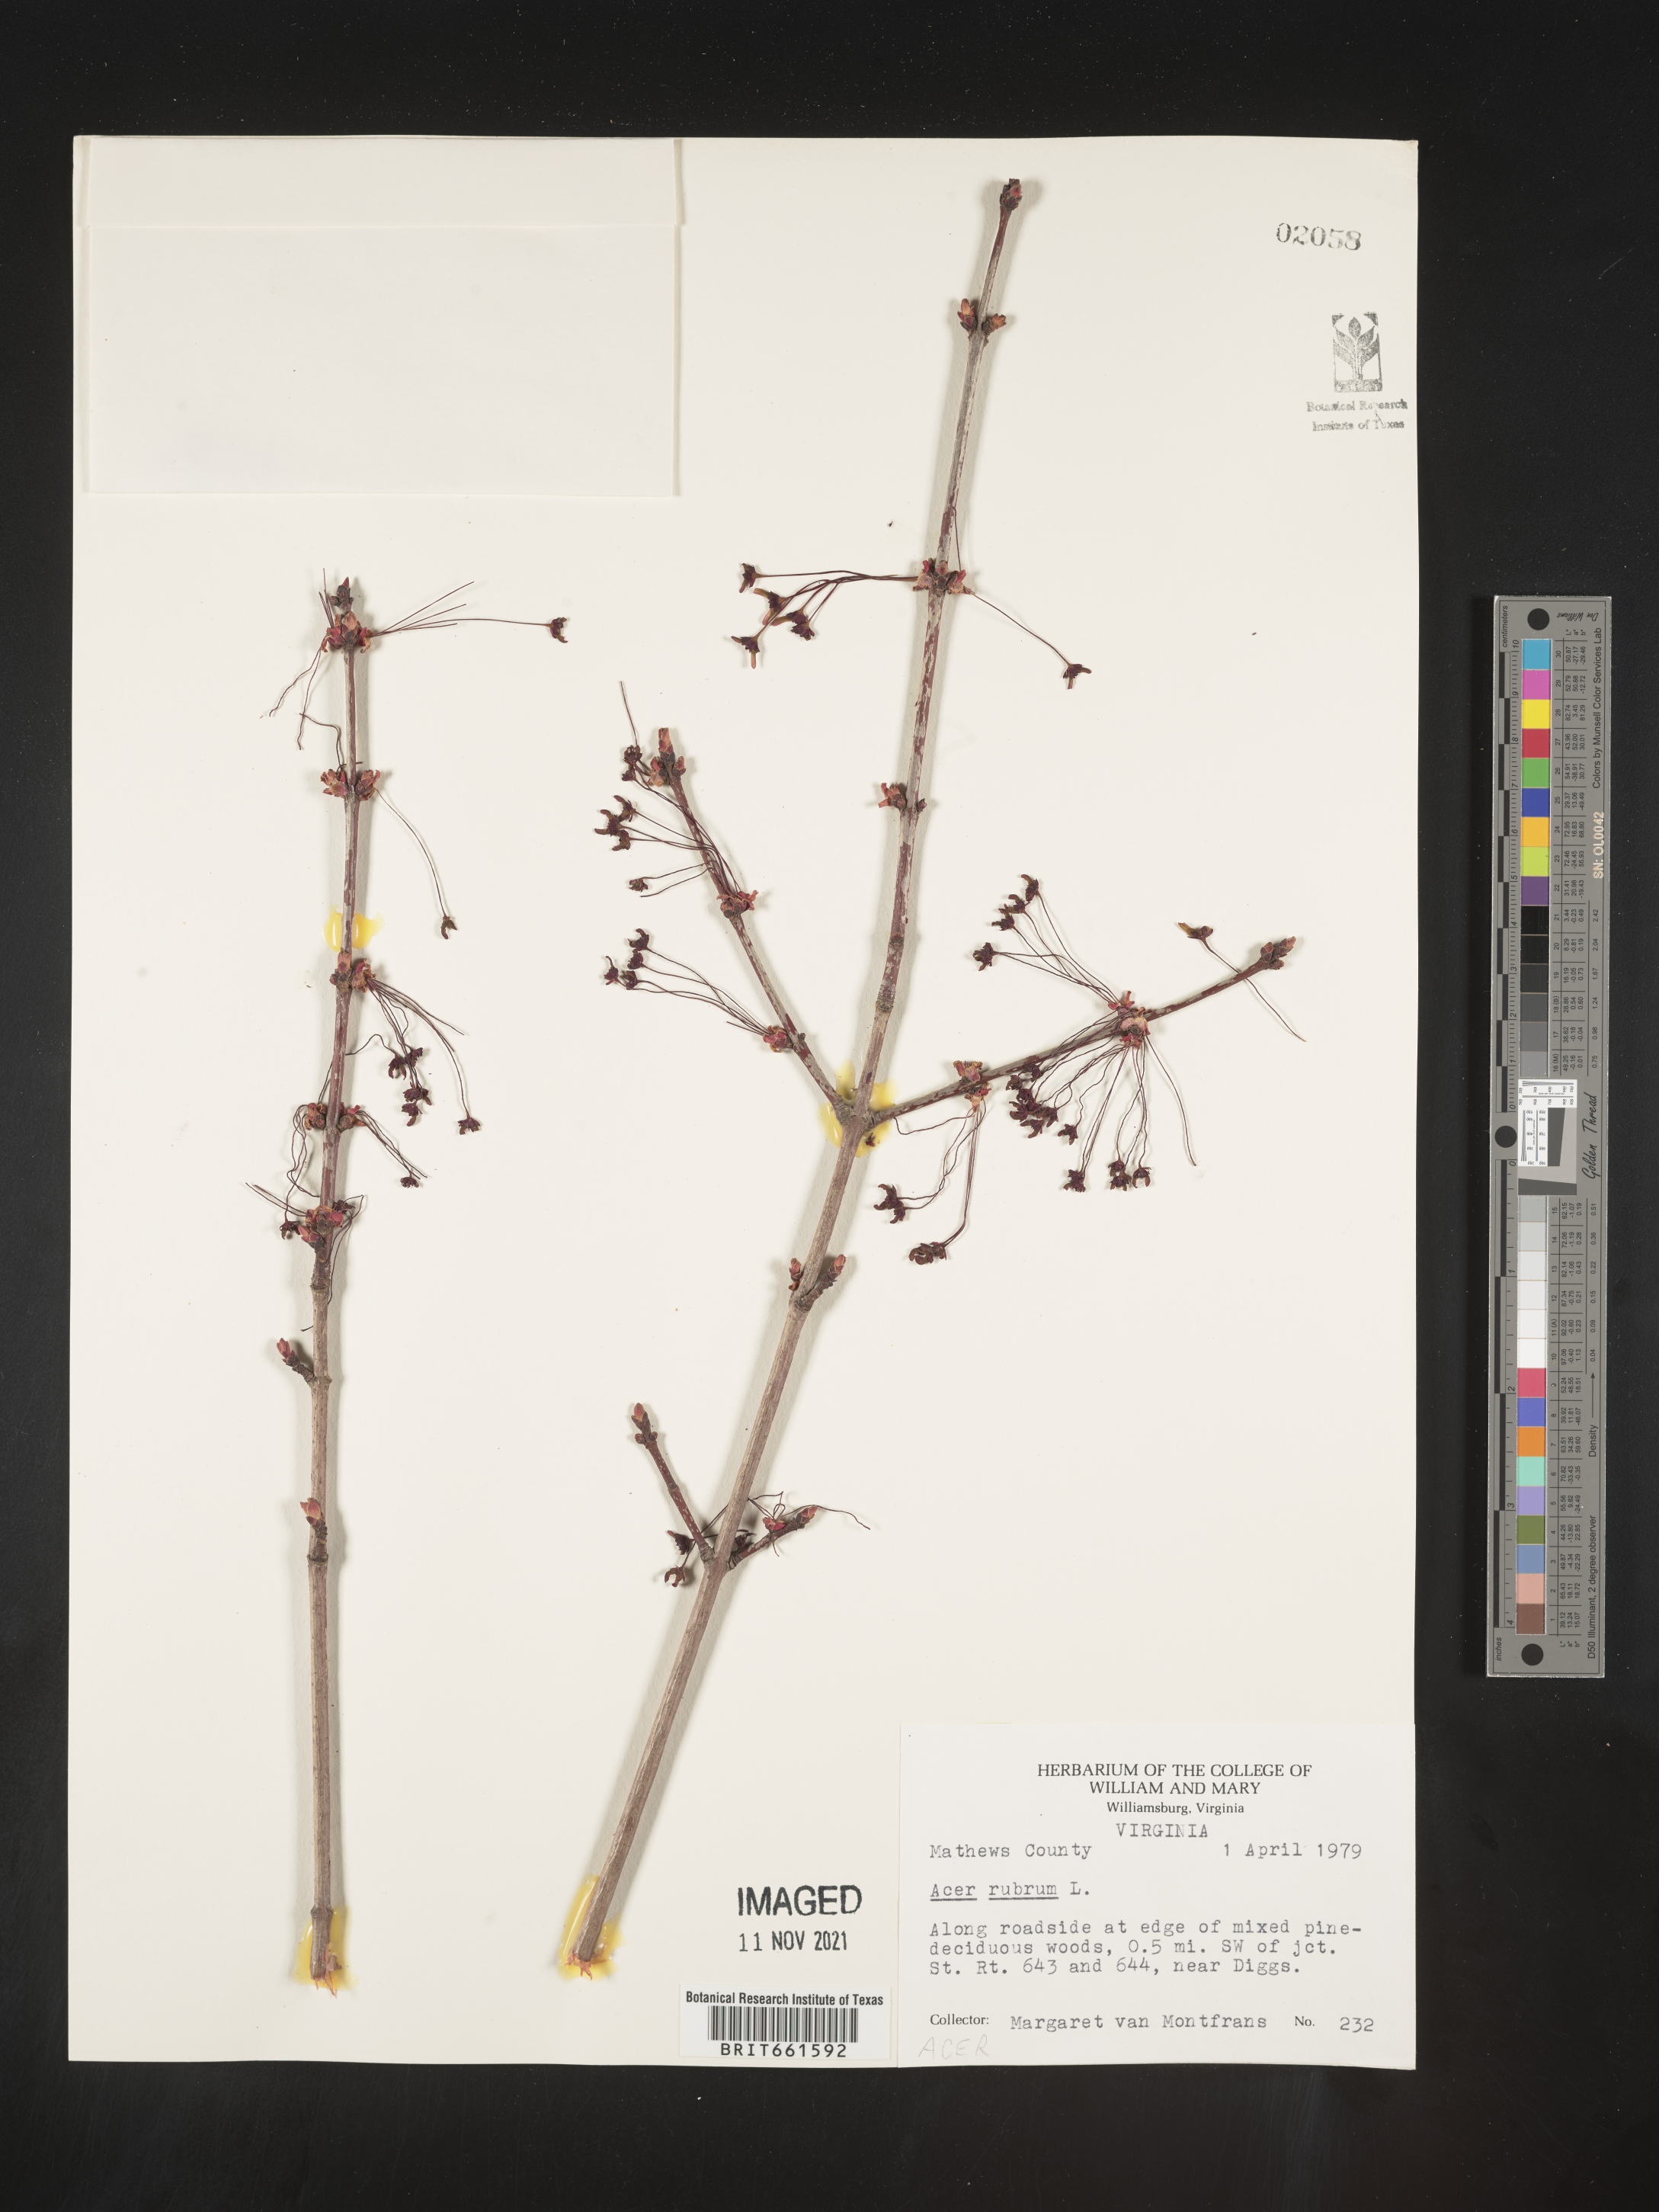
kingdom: Plantae
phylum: Tracheophyta
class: Magnoliopsida
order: Sapindales
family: Sapindaceae
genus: Acer
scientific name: Acer rubrum
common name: Red maple
